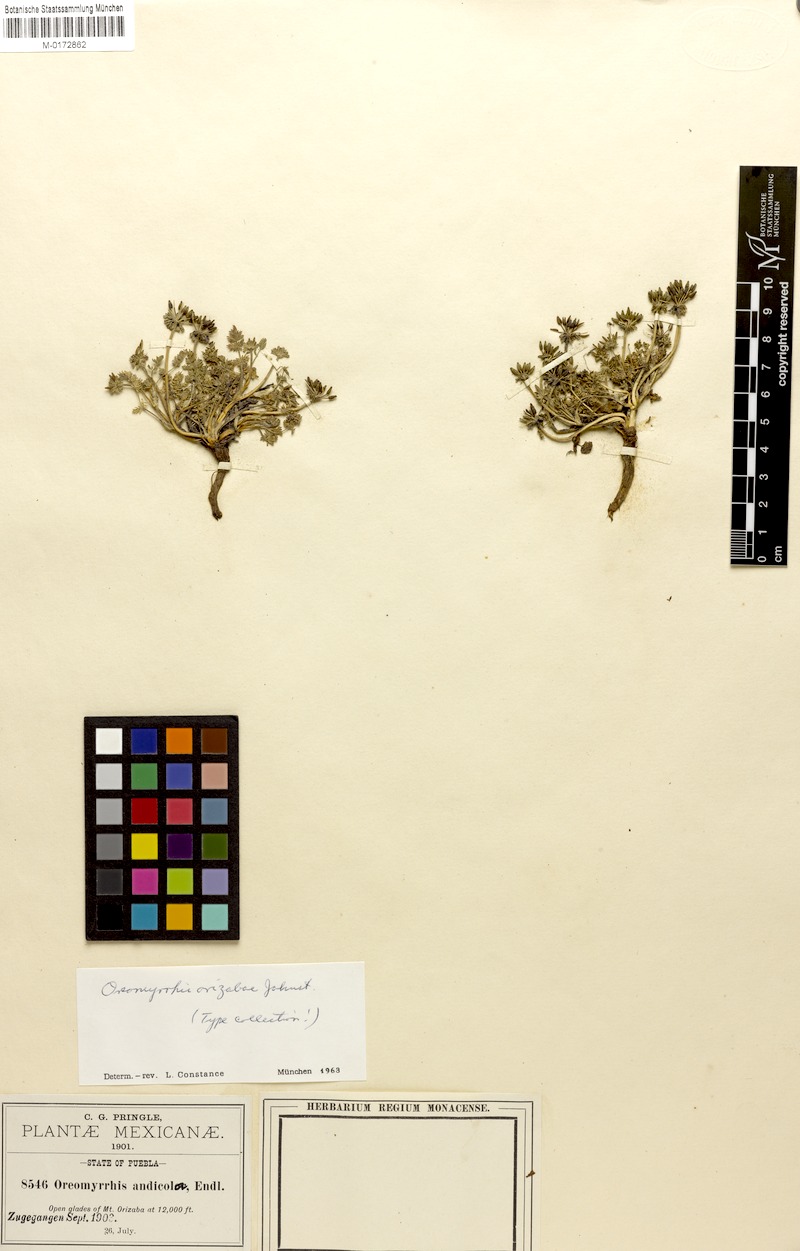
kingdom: Plantae
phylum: Tracheophyta
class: Magnoliopsida
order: Apiales
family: Apiaceae
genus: Chaerophyllum
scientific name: Chaerophyllum orizabae
